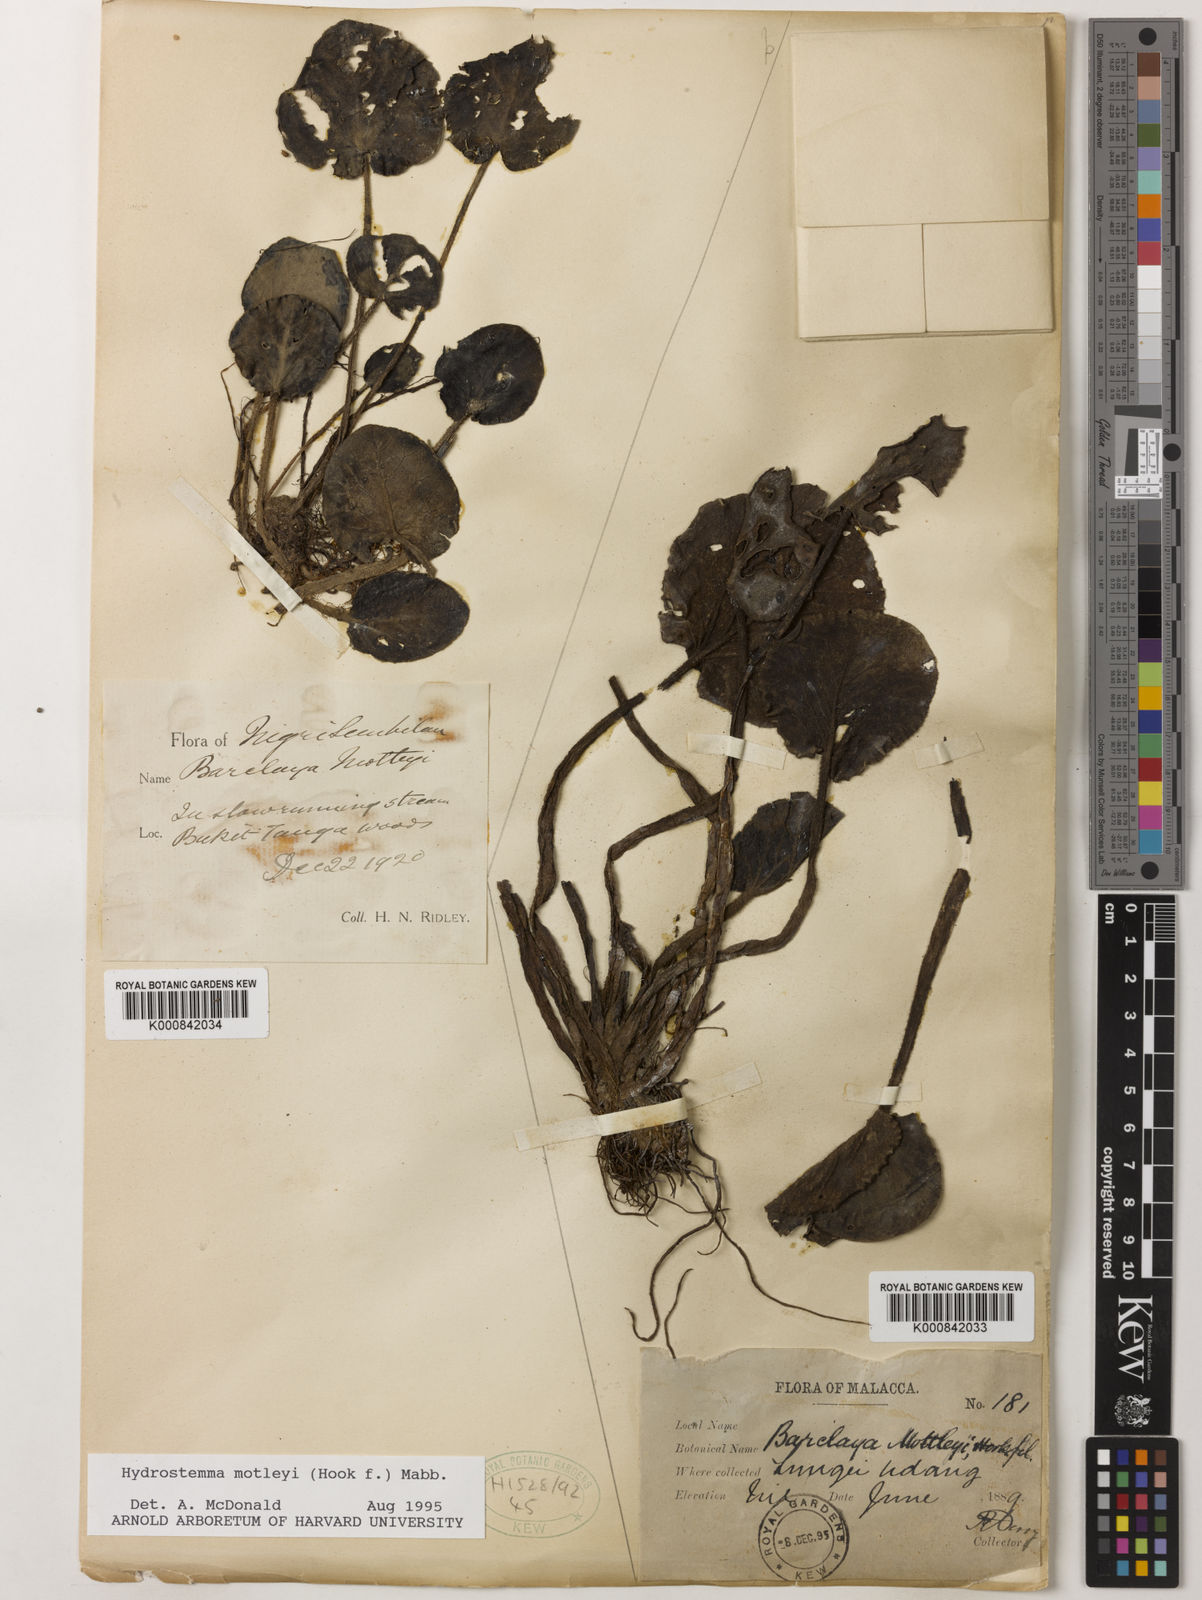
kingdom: Plantae
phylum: Tracheophyta
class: Magnoliopsida
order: Nymphaeales
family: Nymphaeaceae
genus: Barclaya
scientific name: Barclaya motleyi
